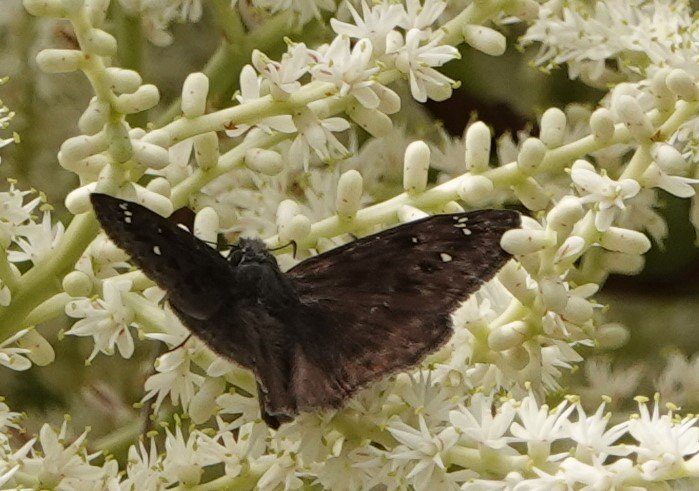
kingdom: Animalia
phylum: Arthropoda
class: Insecta
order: Lepidoptera
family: Hesperiidae
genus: Gesta
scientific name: Gesta
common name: Horace's Duskywing
